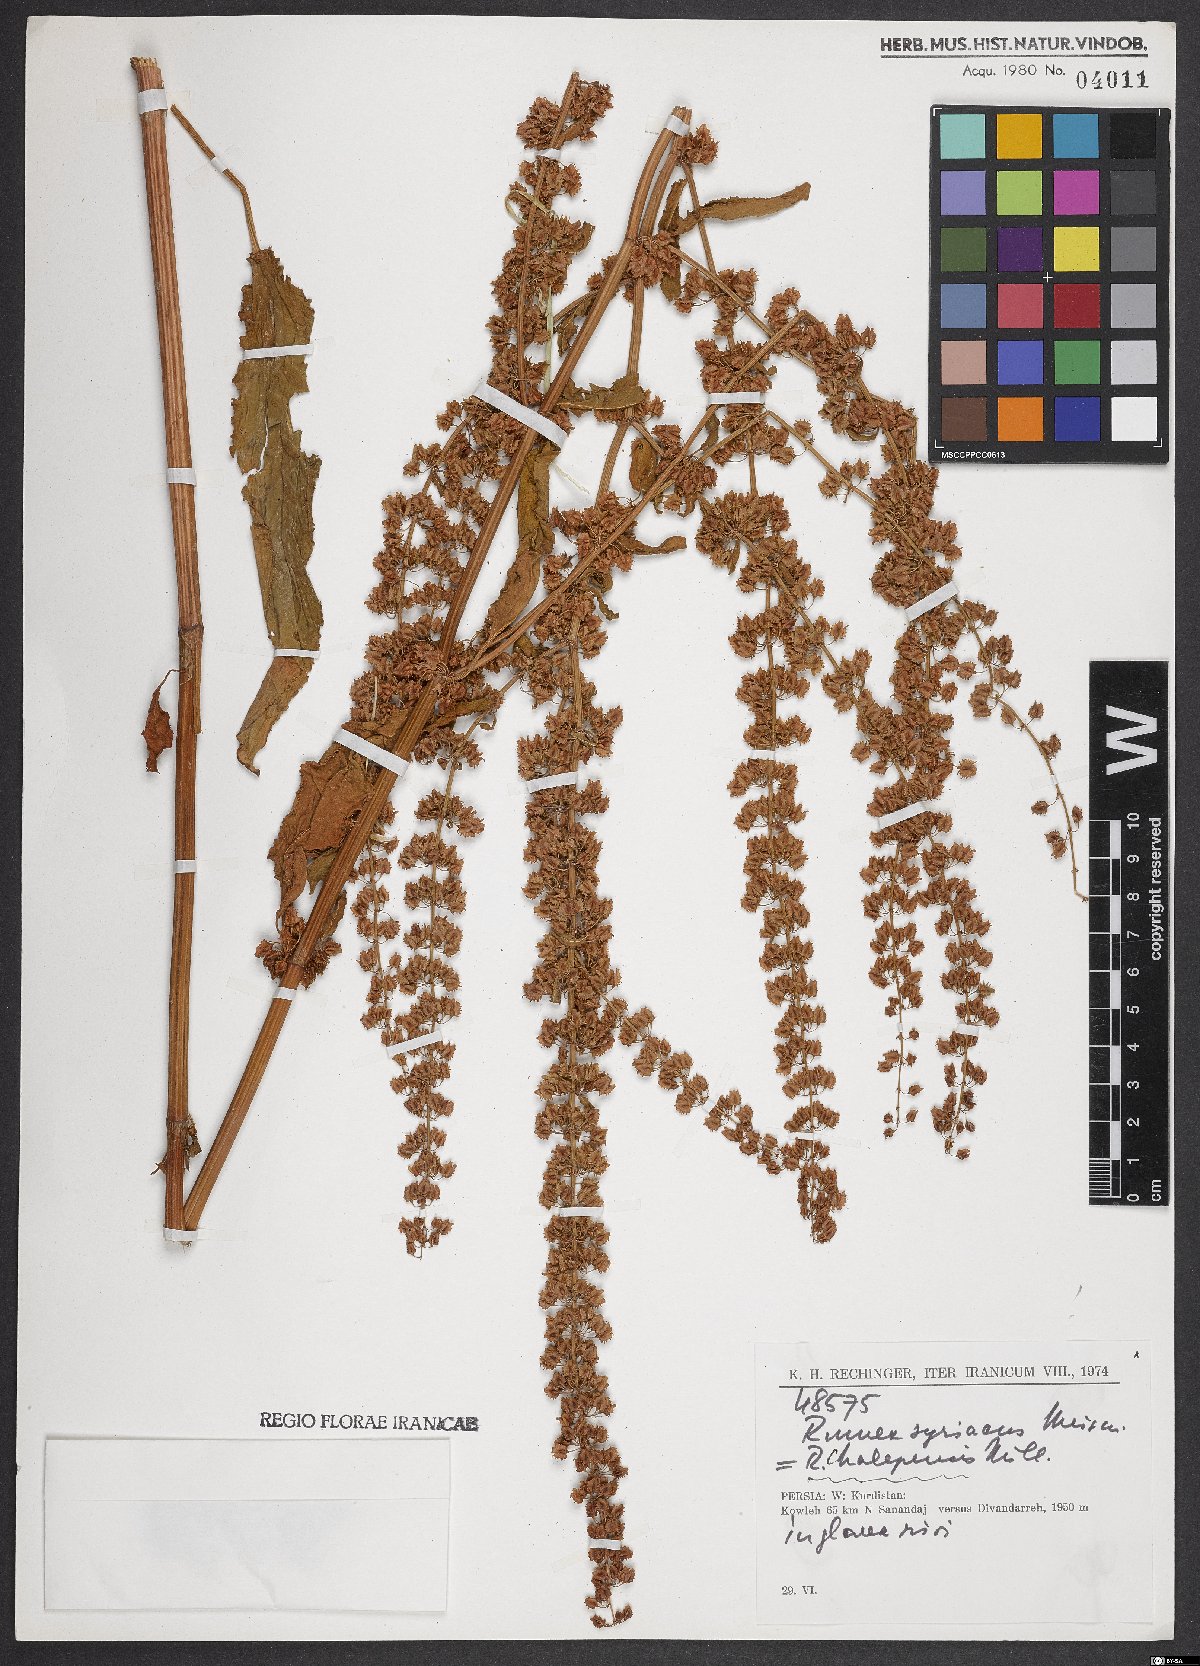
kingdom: Plantae
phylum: Tracheophyta
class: Magnoliopsida
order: Caryophyllales
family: Polygonaceae
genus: Rumex
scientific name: Rumex chalepensis
